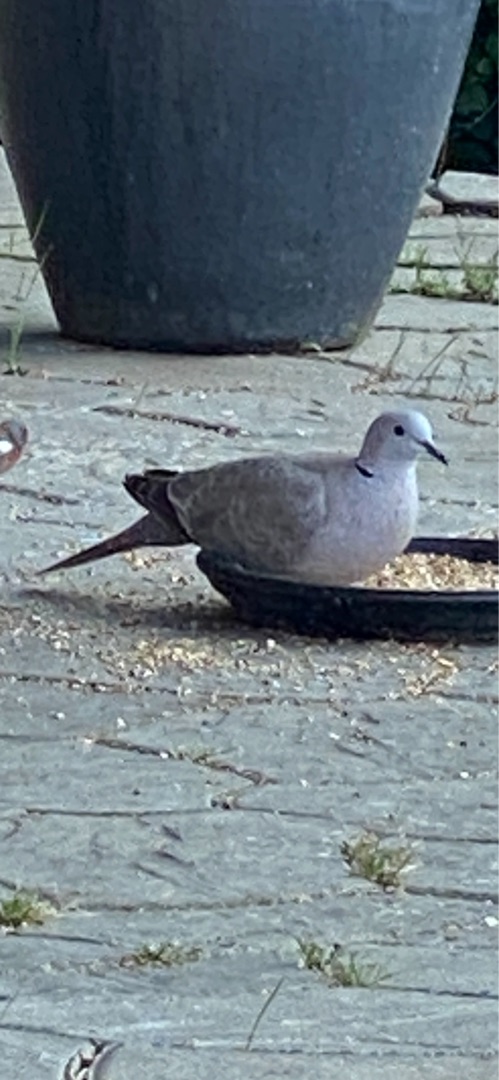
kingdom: Animalia
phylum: Chordata
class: Aves
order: Columbiformes
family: Columbidae
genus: Streptopelia
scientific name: Streptopelia decaocto
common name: Tyrkerdue
